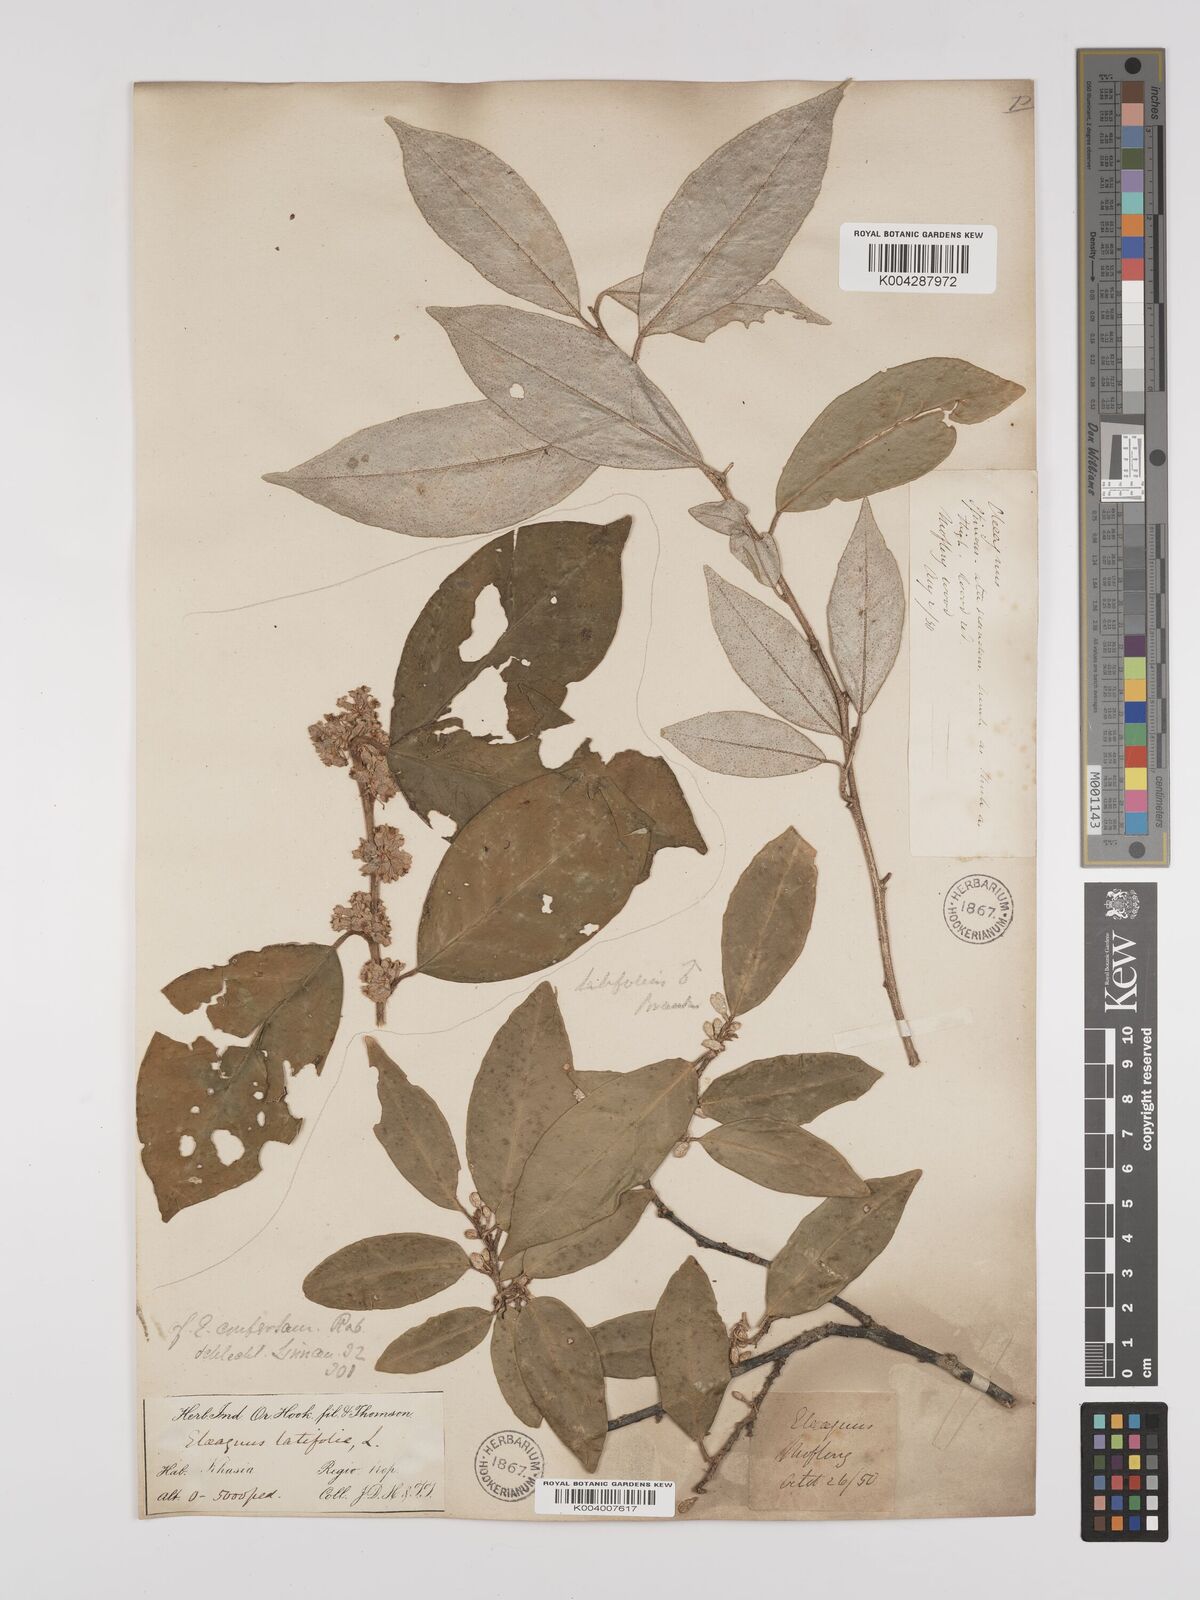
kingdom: Plantae
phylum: Tracheophyta
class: Magnoliopsida
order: Rosales
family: Elaeagnaceae
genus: Elaeagnus
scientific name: Elaeagnus latifolia
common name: Oleaster
